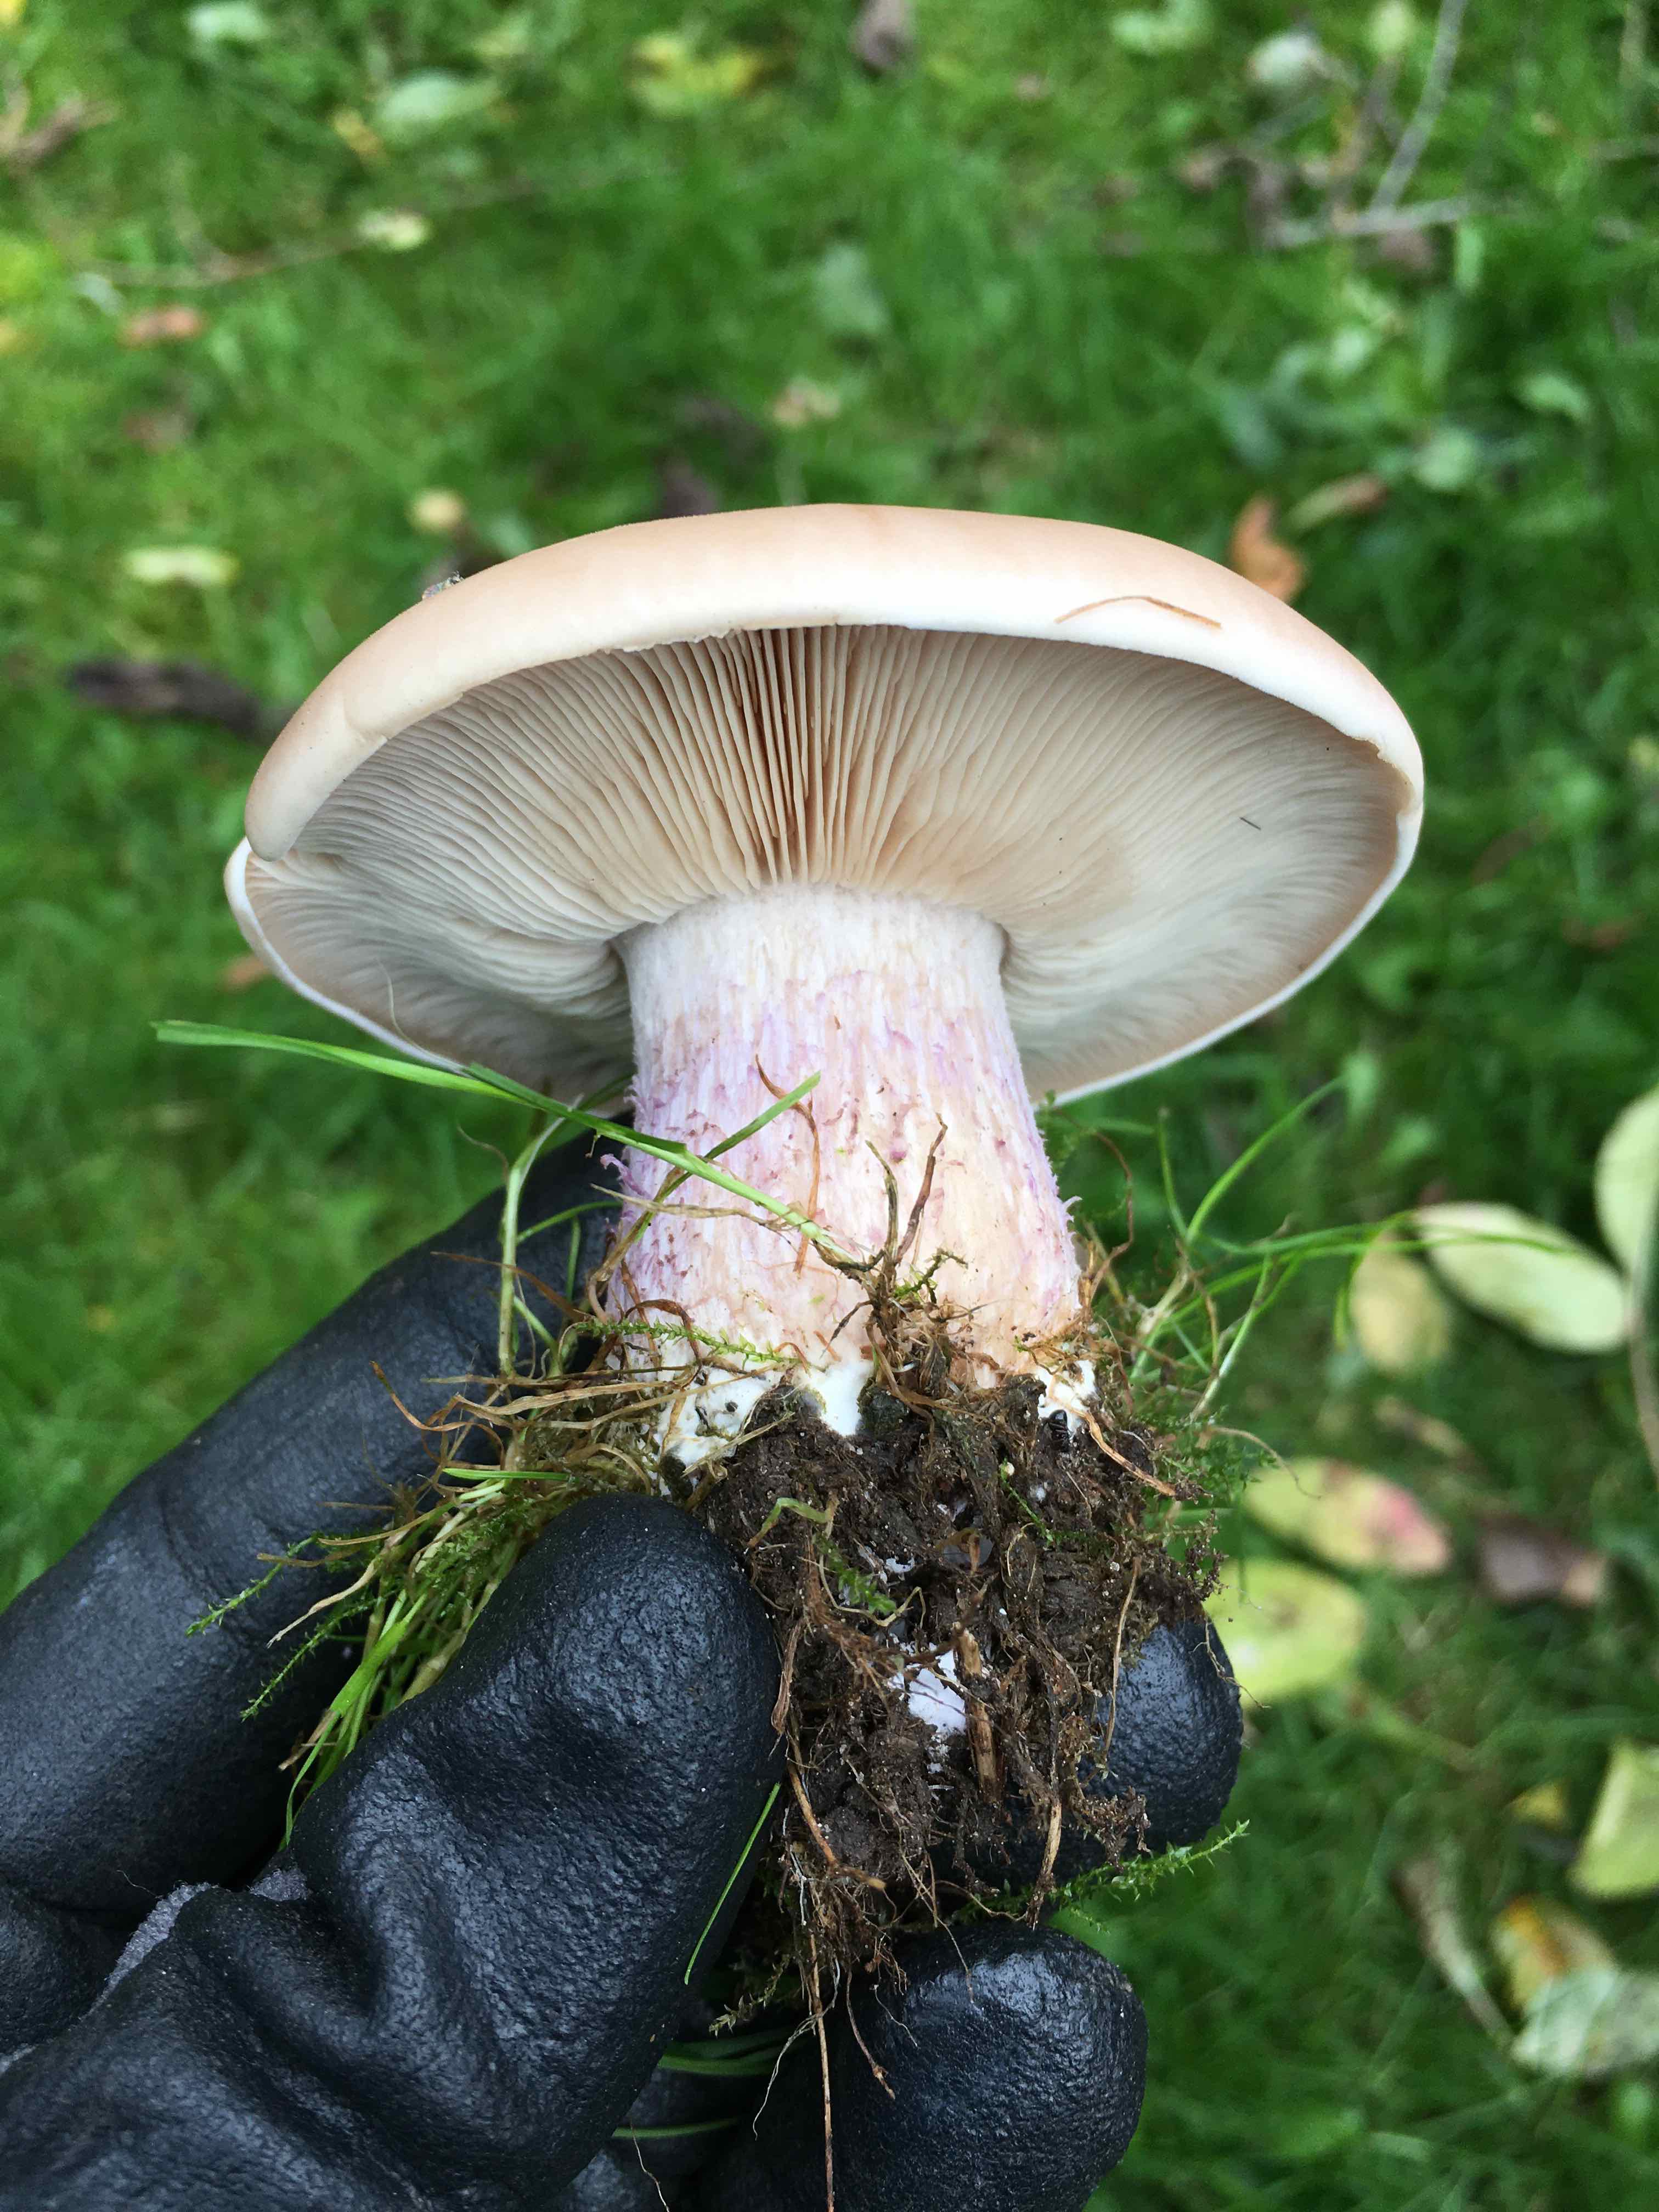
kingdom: Fungi
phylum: Basidiomycota
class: Agaricomycetes
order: Agaricales
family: Tricholomataceae
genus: Lepista
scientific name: Lepista personata
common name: bleg hekseringshat
